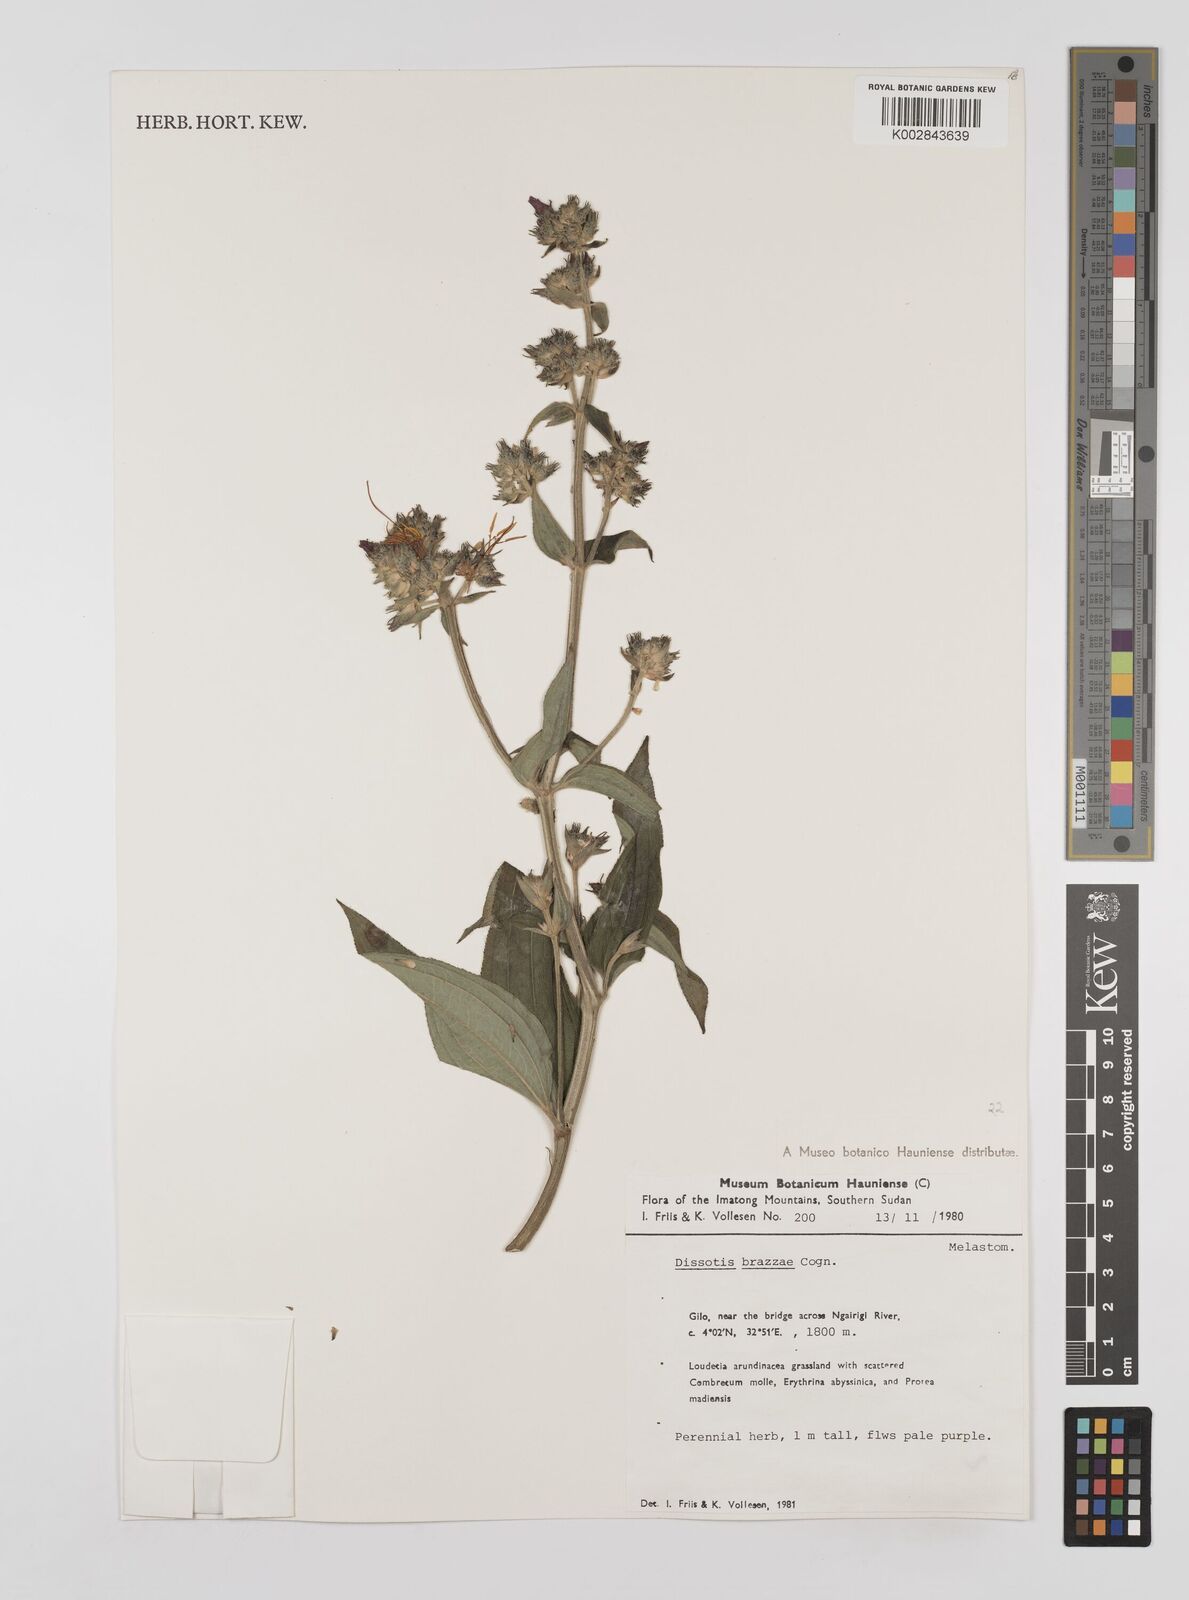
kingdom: Plantae
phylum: Tracheophyta
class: Magnoliopsida
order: Myrtales
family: Melastomataceae
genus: Dupineta
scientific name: Dupineta brazzae
